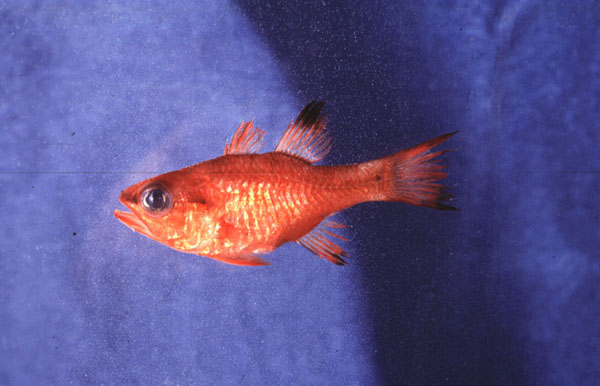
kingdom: Animalia
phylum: Chordata
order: Perciformes
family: Apogonidae
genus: Apogon
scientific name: Apogon imberbis
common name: Cardinal fish
